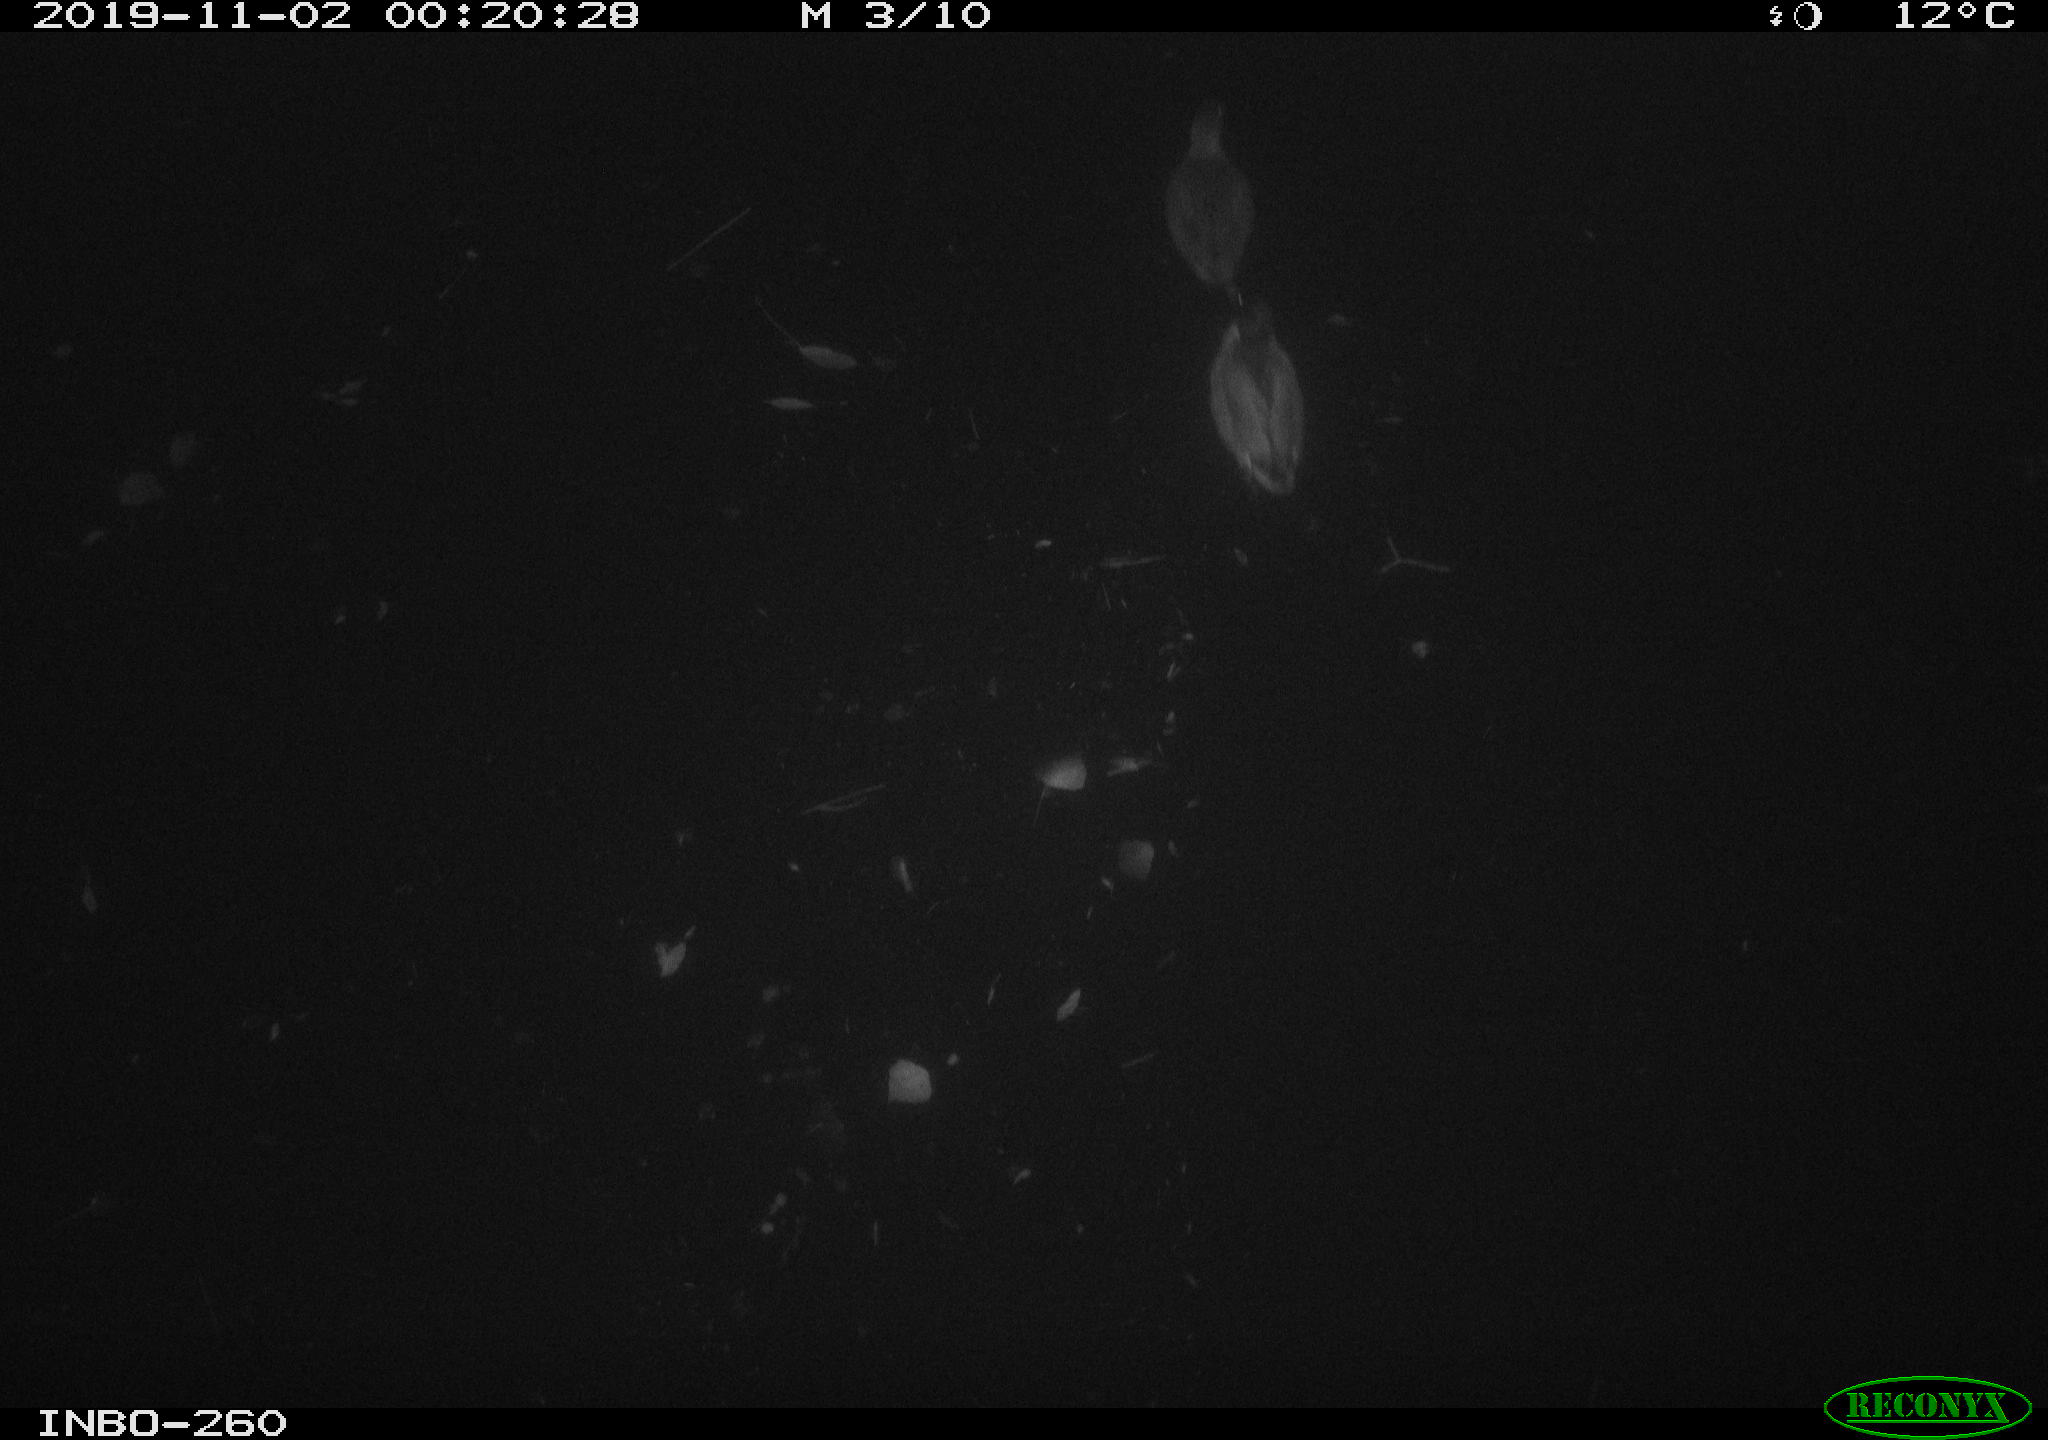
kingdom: Animalia
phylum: Chordata
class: Aves
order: Anseriformes
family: Anatidae
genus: Anas
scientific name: Anas platyrhynchos
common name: Mallard
